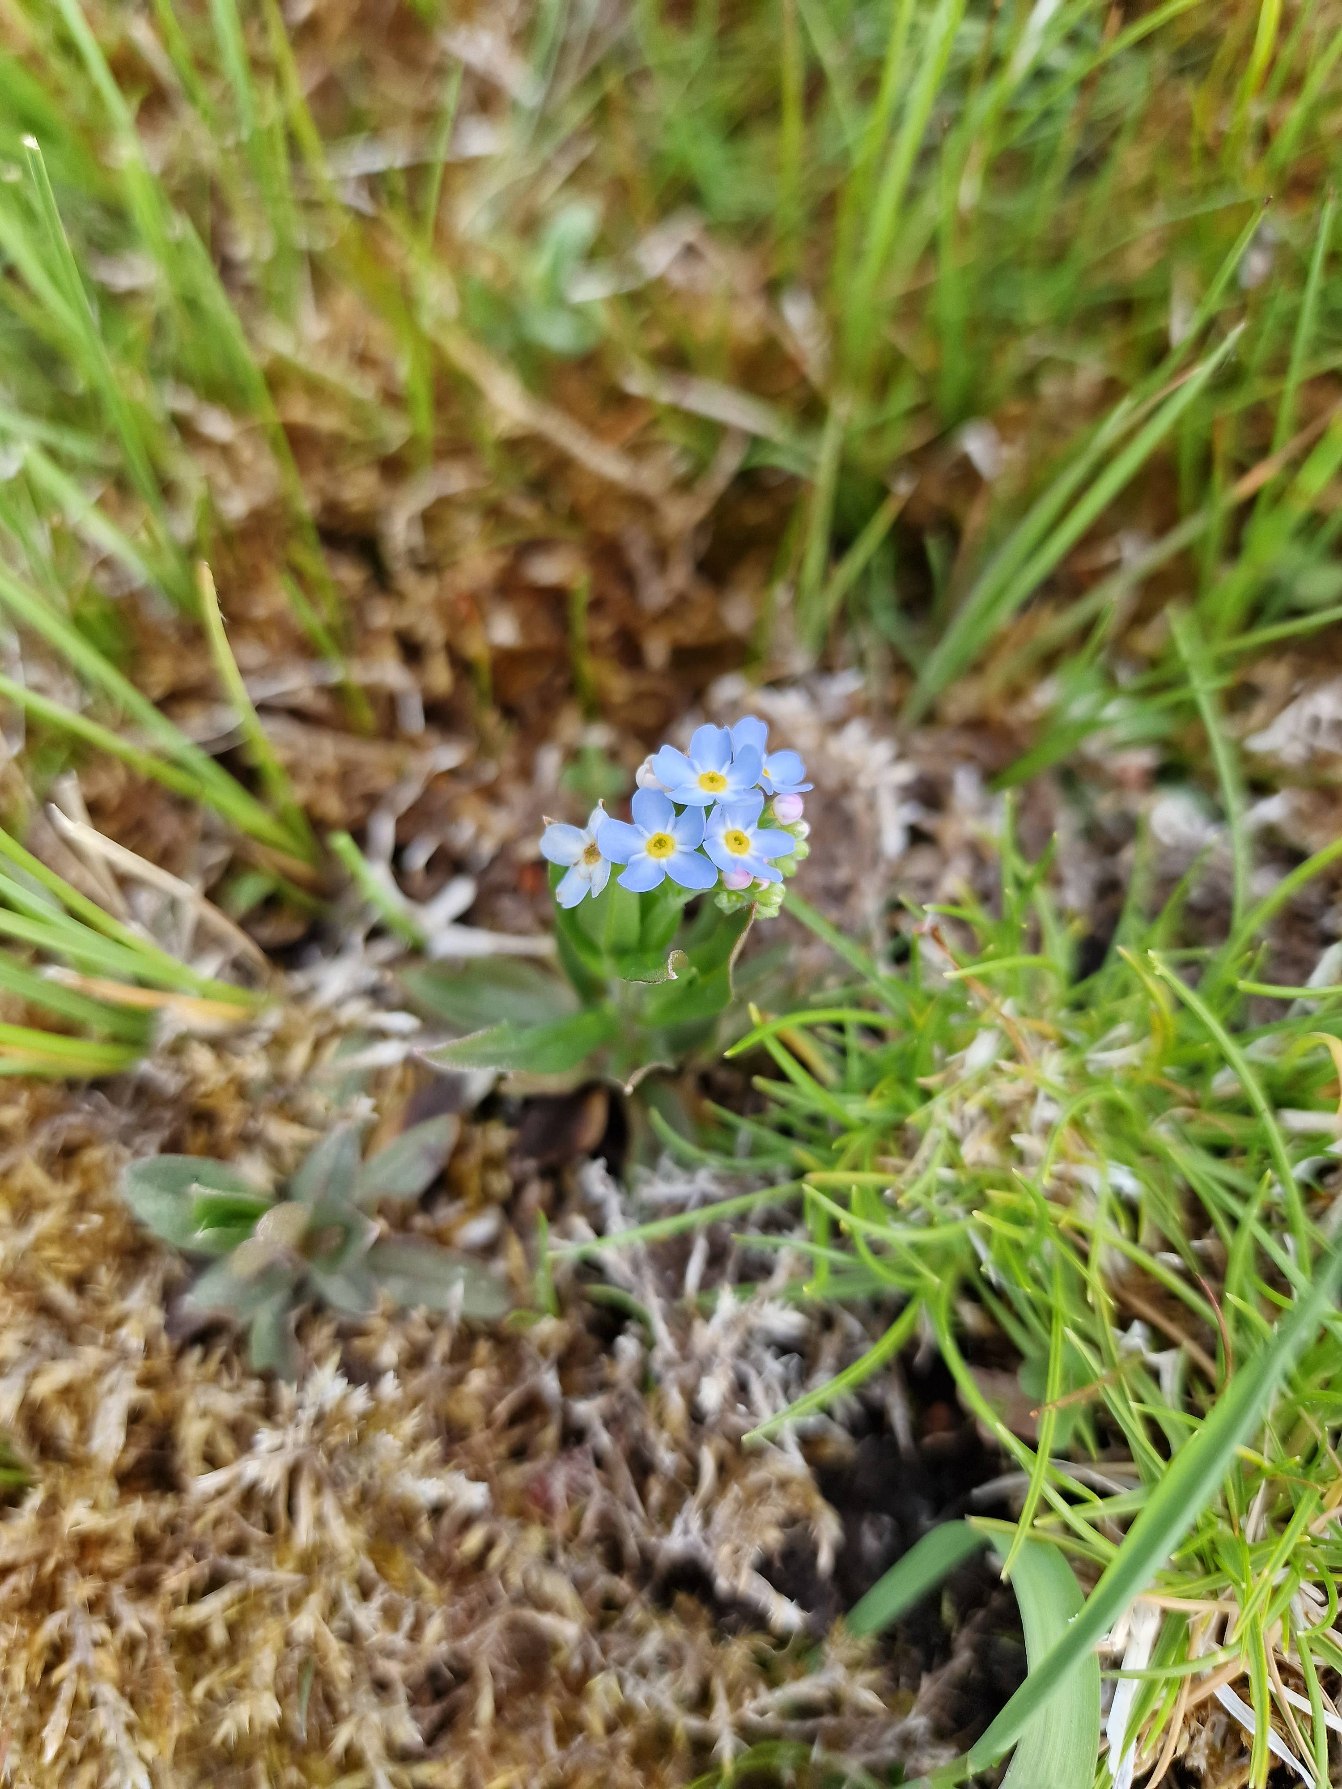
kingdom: Plantae
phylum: Tracheophyta
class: Magnoliopsida
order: Boraginales
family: Boraginaceae
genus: Myosotis
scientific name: Myosotis scorpioides
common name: Eng-forglemmigej
